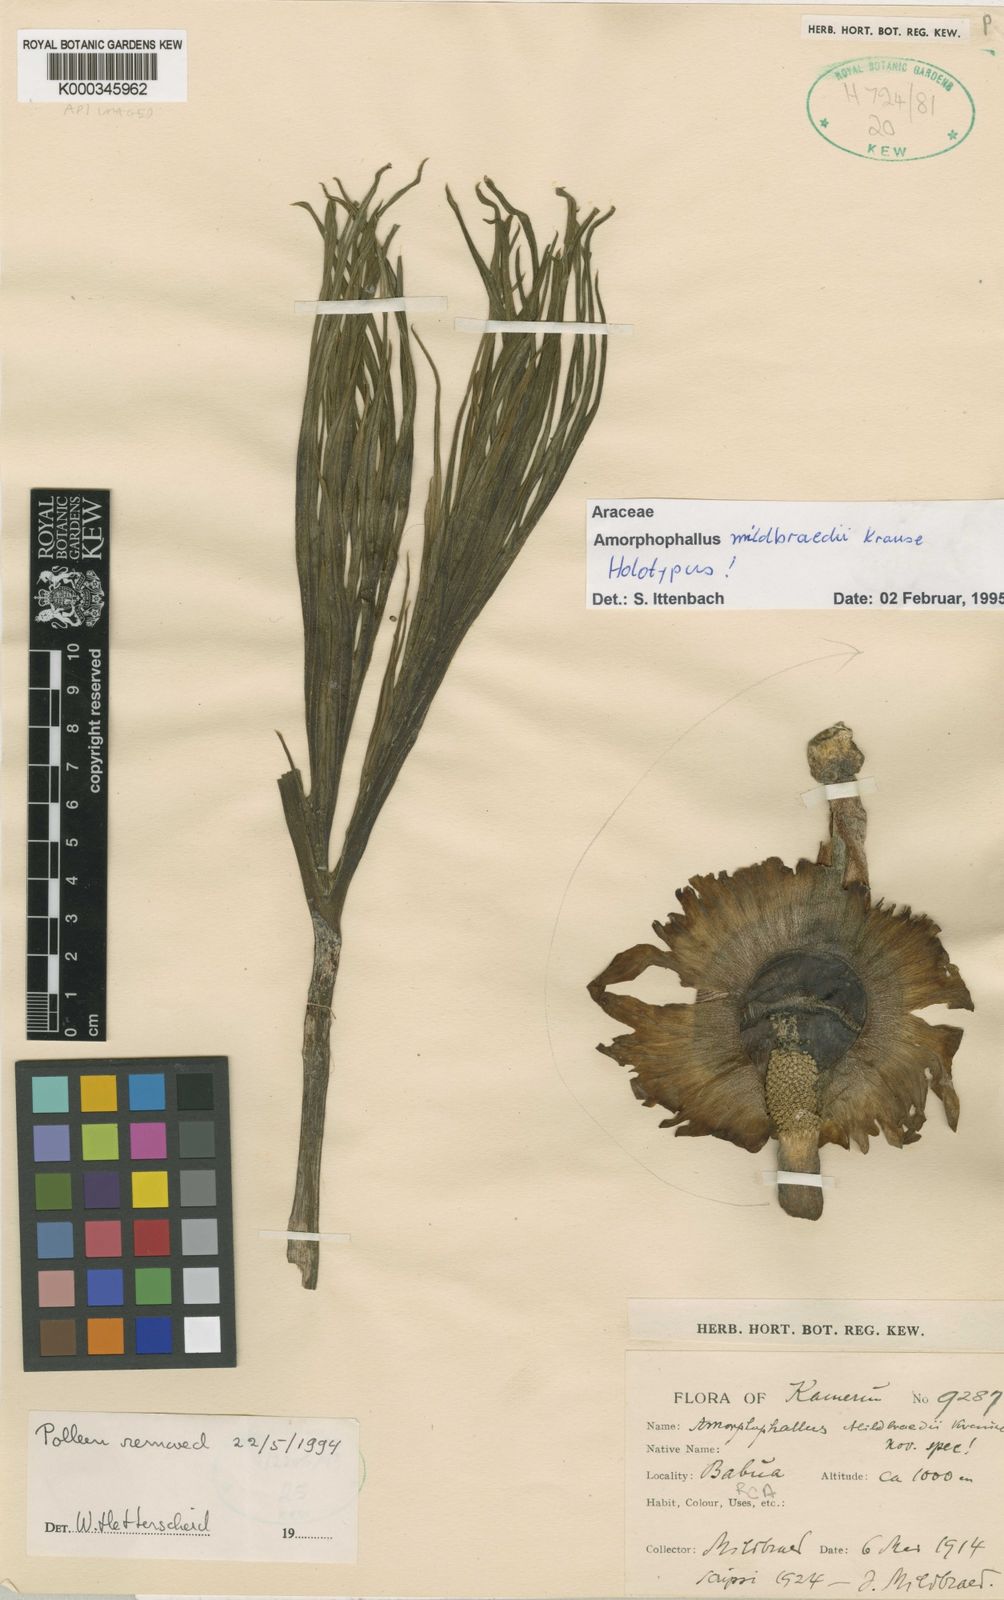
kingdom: Plantae
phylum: Tracheophyta
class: Liliopsida
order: Alismatales
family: Araceae
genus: Amorphophallus
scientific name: Amorphophallus mildbraedii
